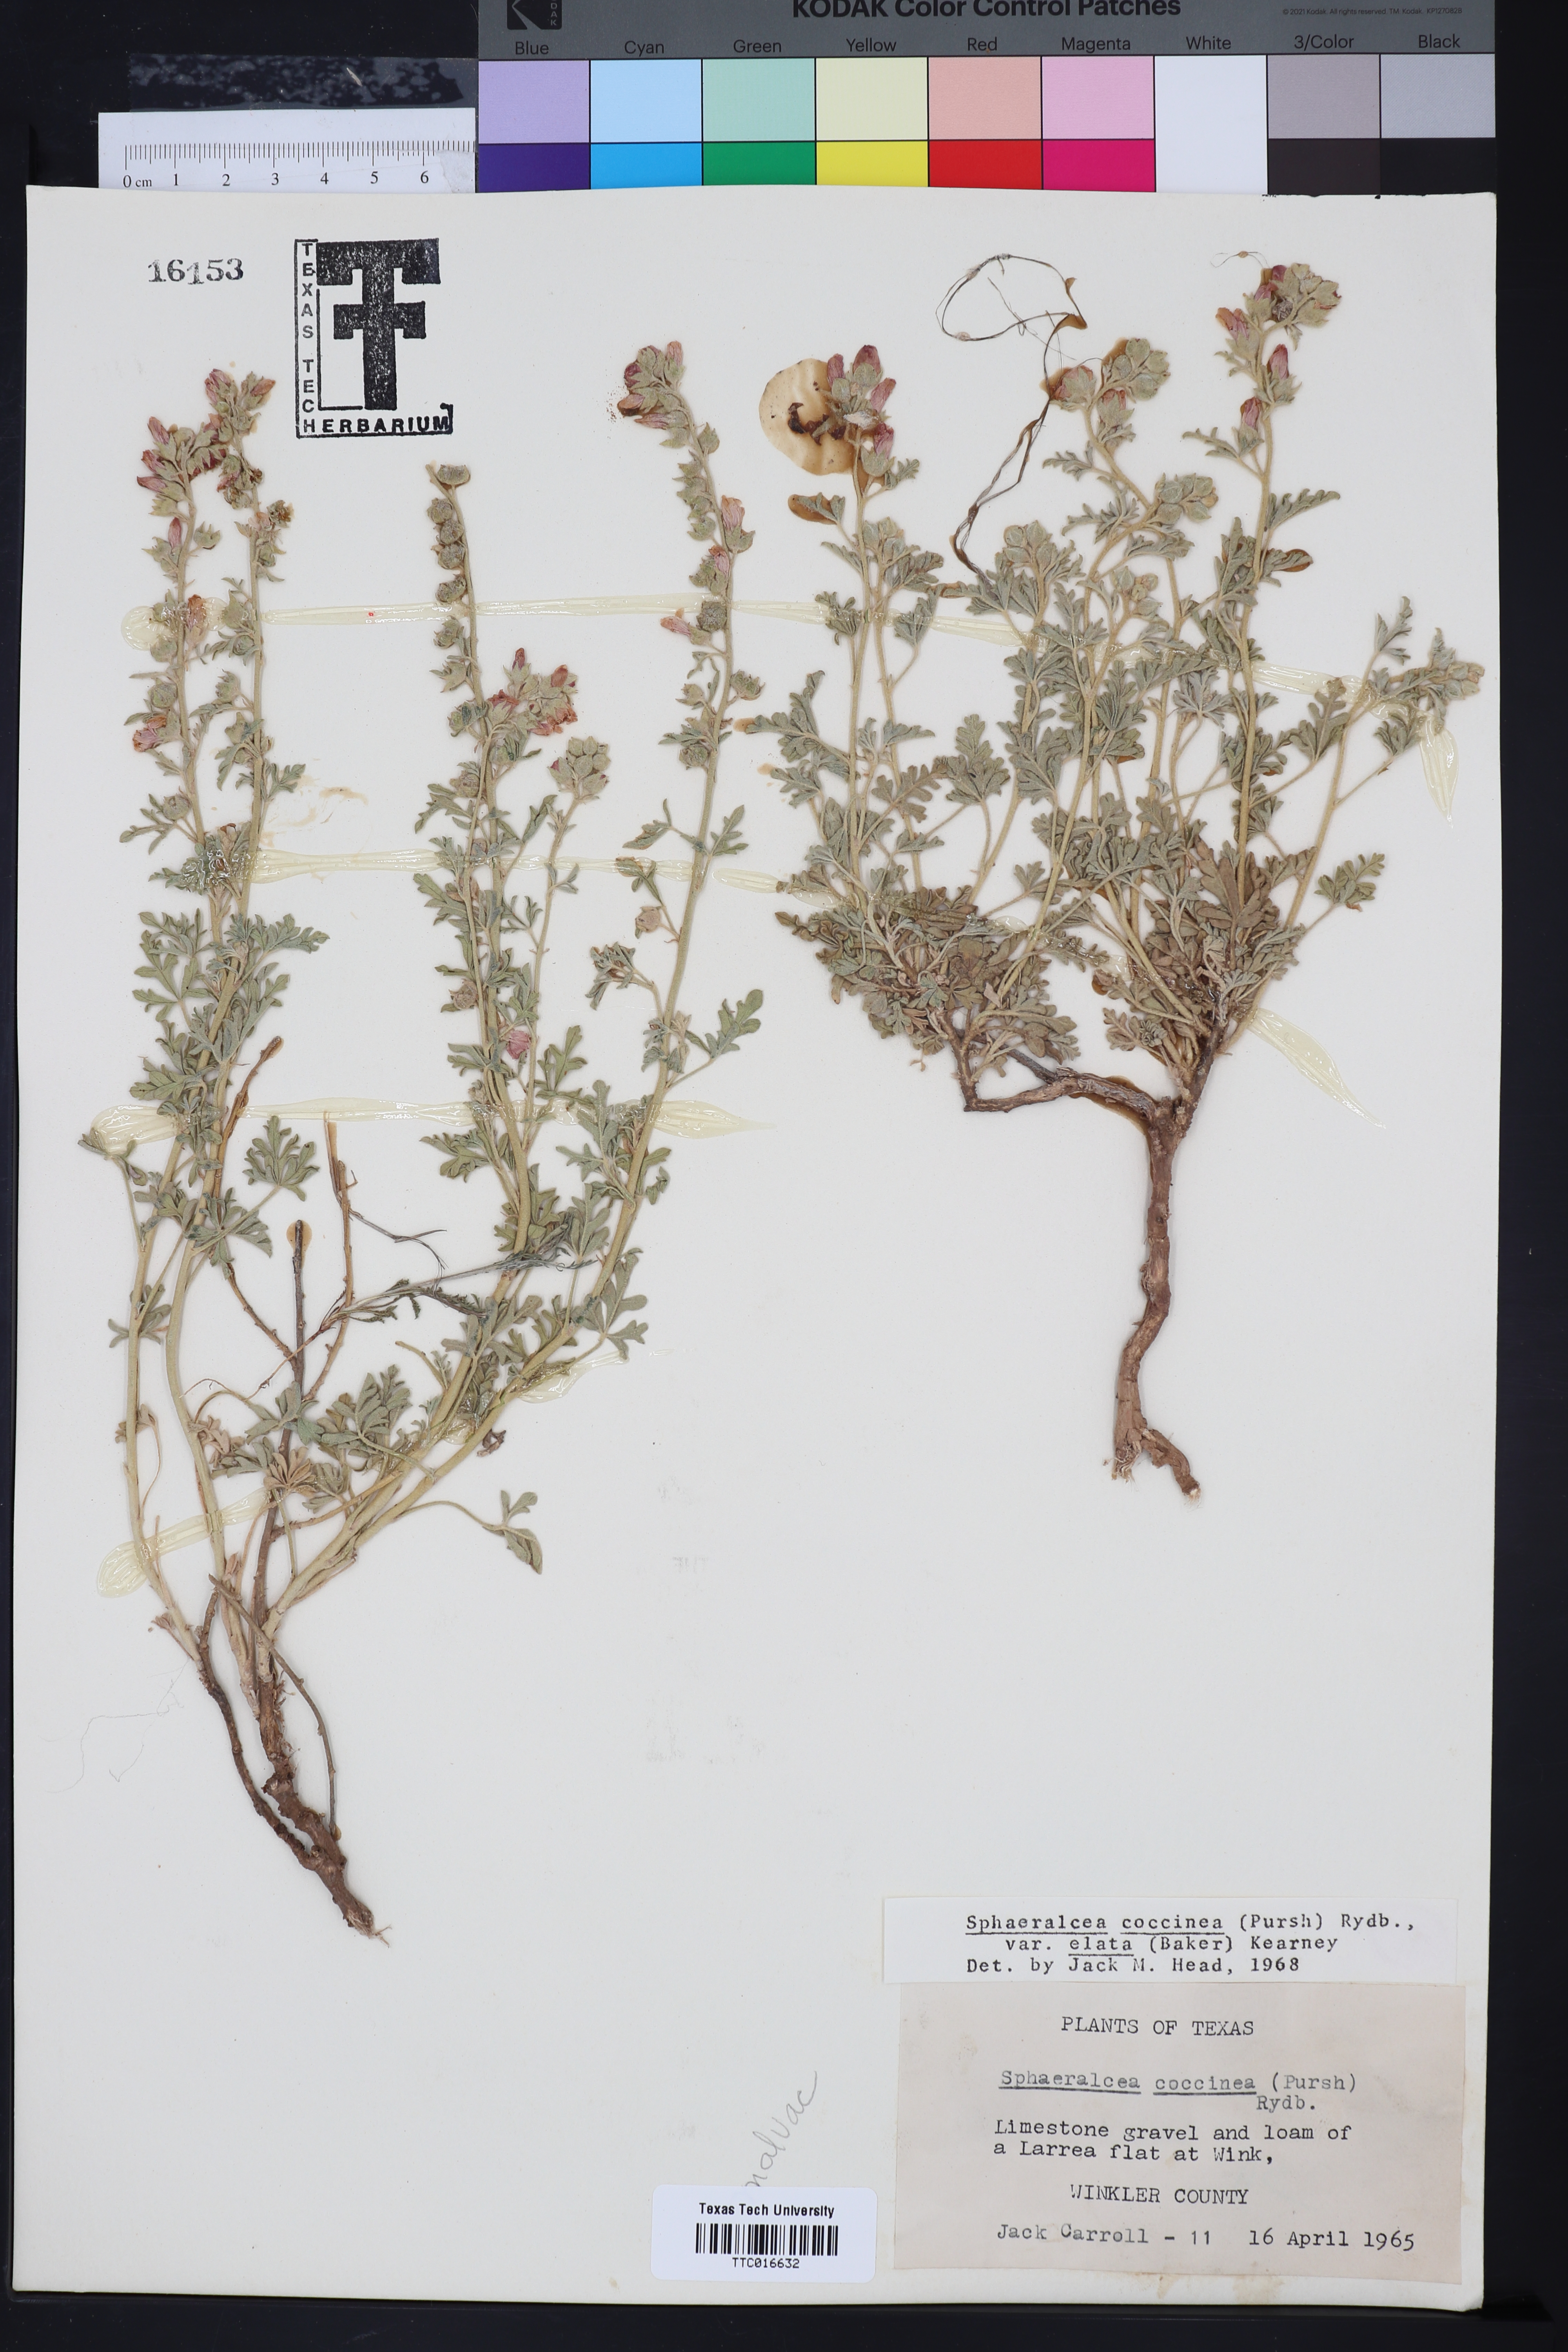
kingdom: Plantae
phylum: Tracheophyta
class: Magnoliopsida
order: Malvales
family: Malvaceae
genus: Sphaeralcea
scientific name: Sphaeralcea coccinea
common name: Moss-rose
